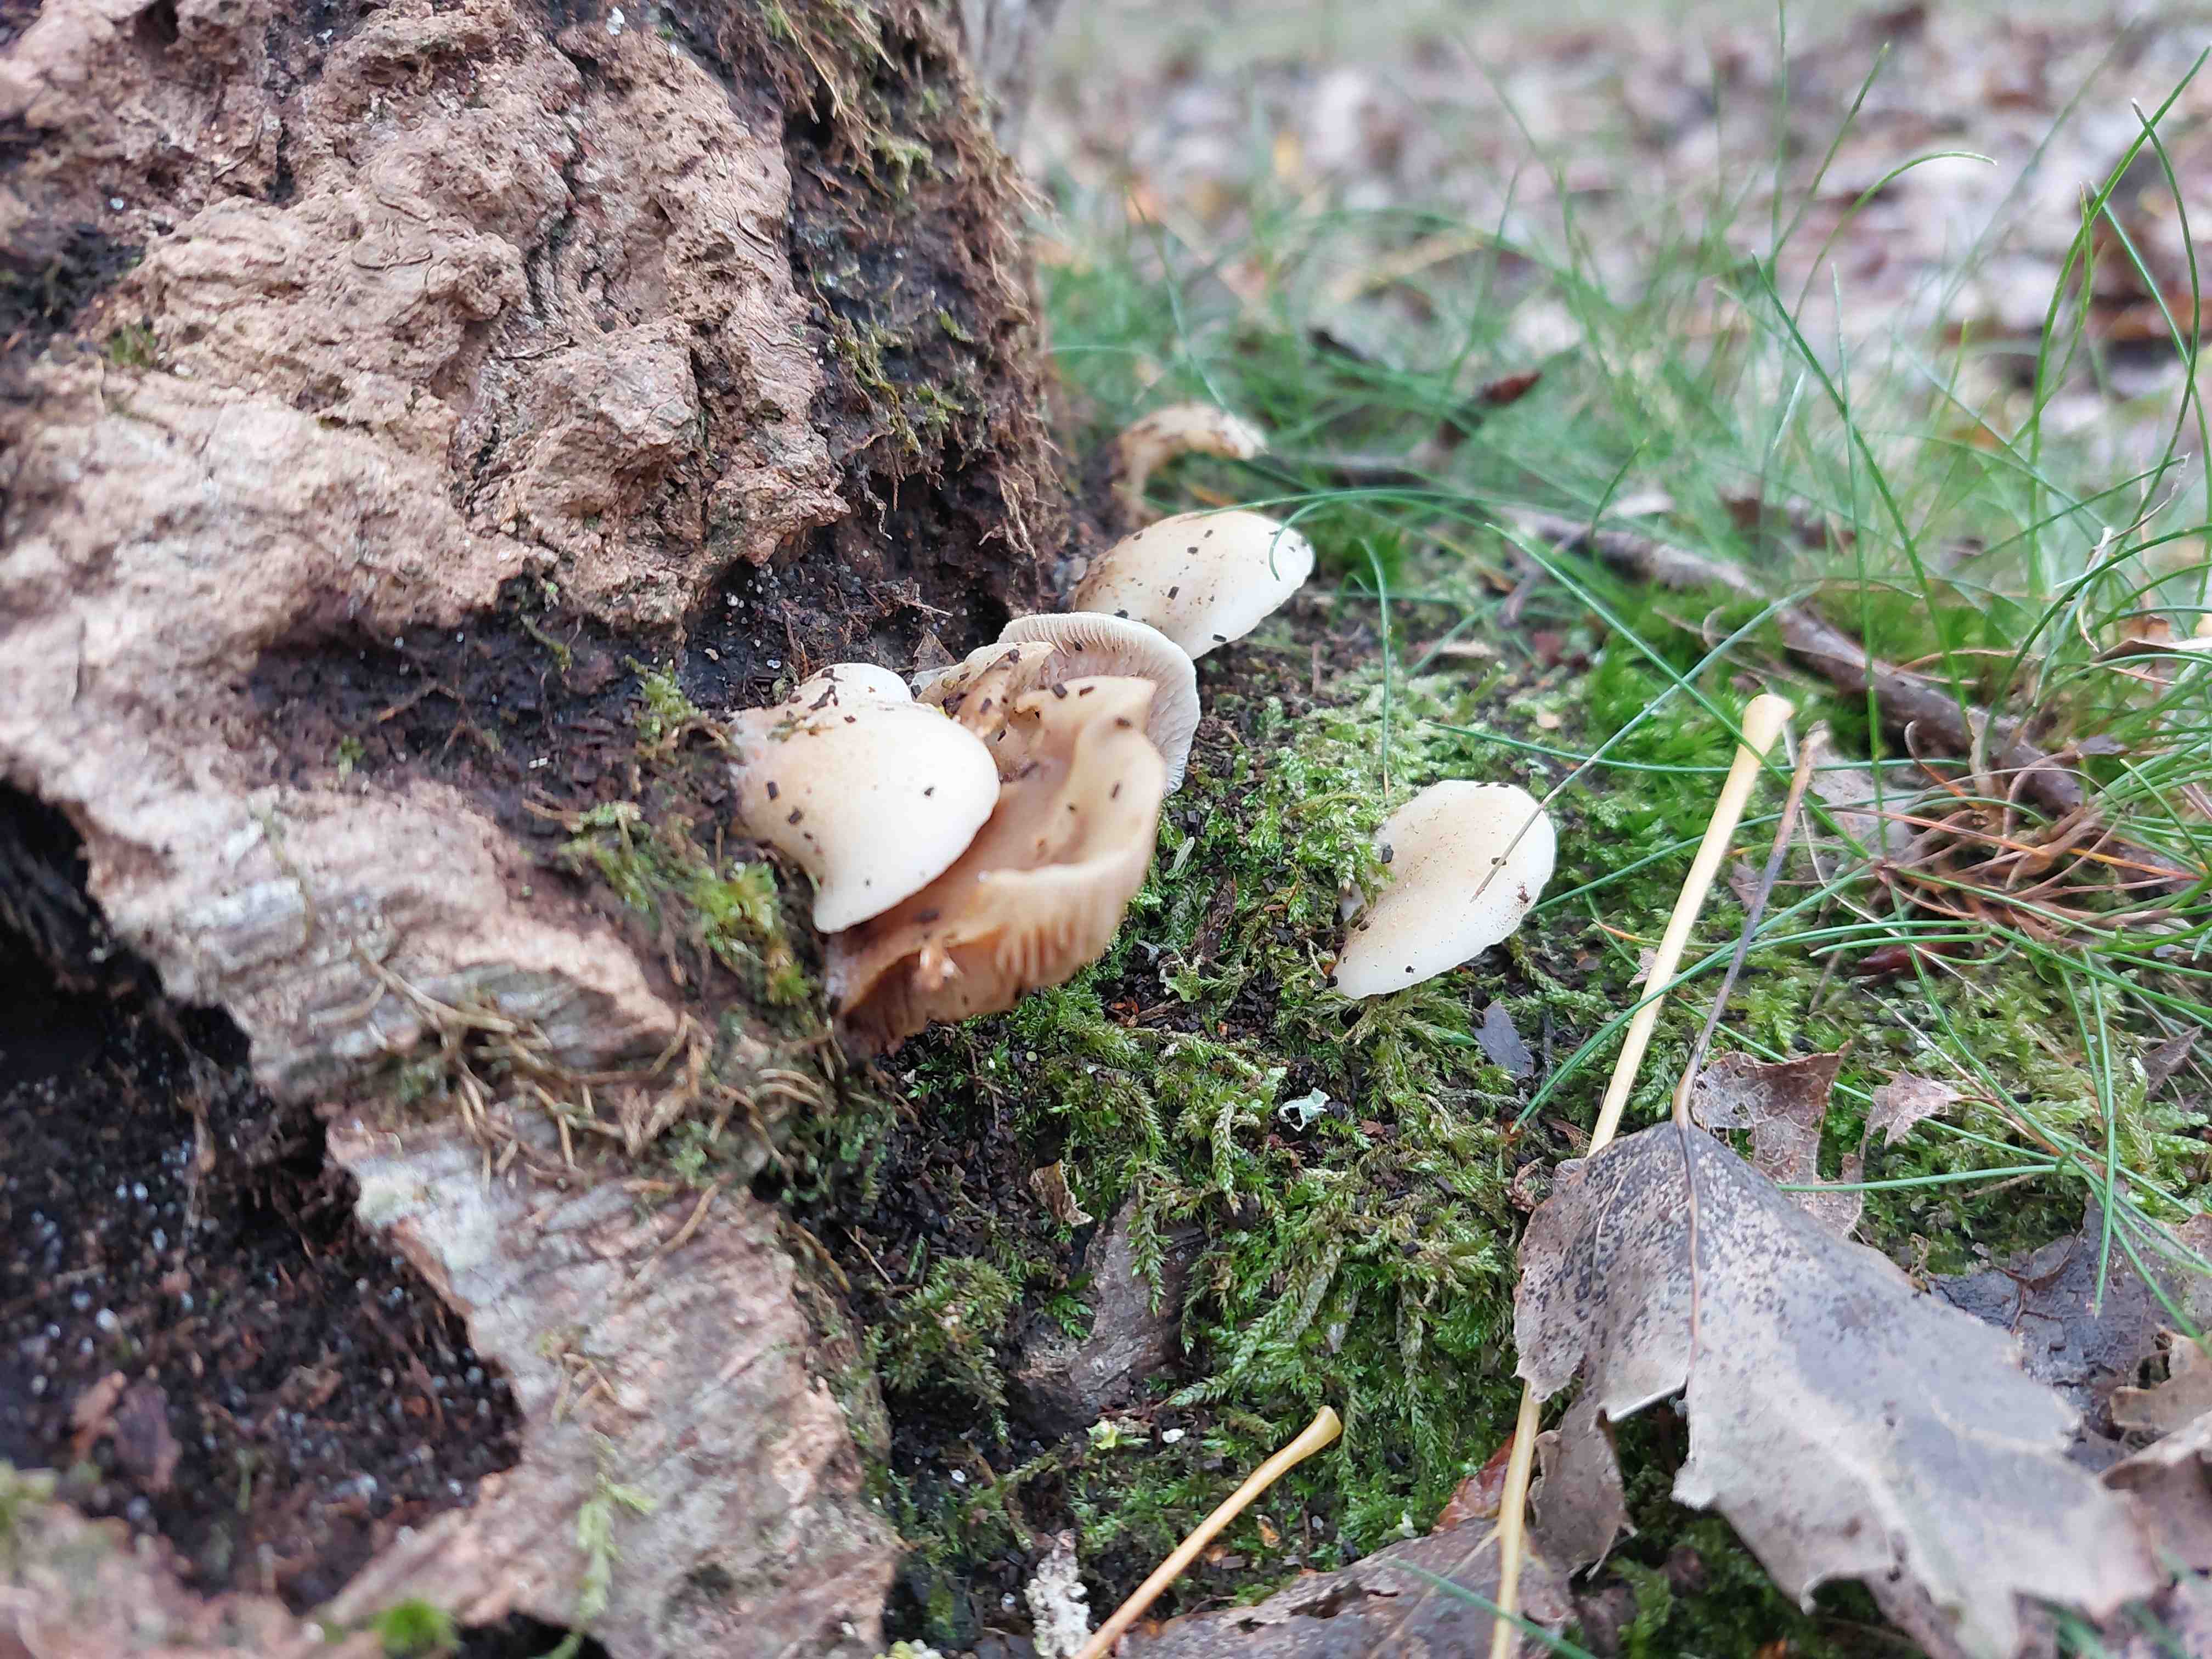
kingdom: Fungi
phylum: Basidiomycota
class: Agaricomycetes
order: Agaricales
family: Crepidotaceae
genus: Crepidotus
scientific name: Crepidotus mollis
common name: blød muslingesvamp
